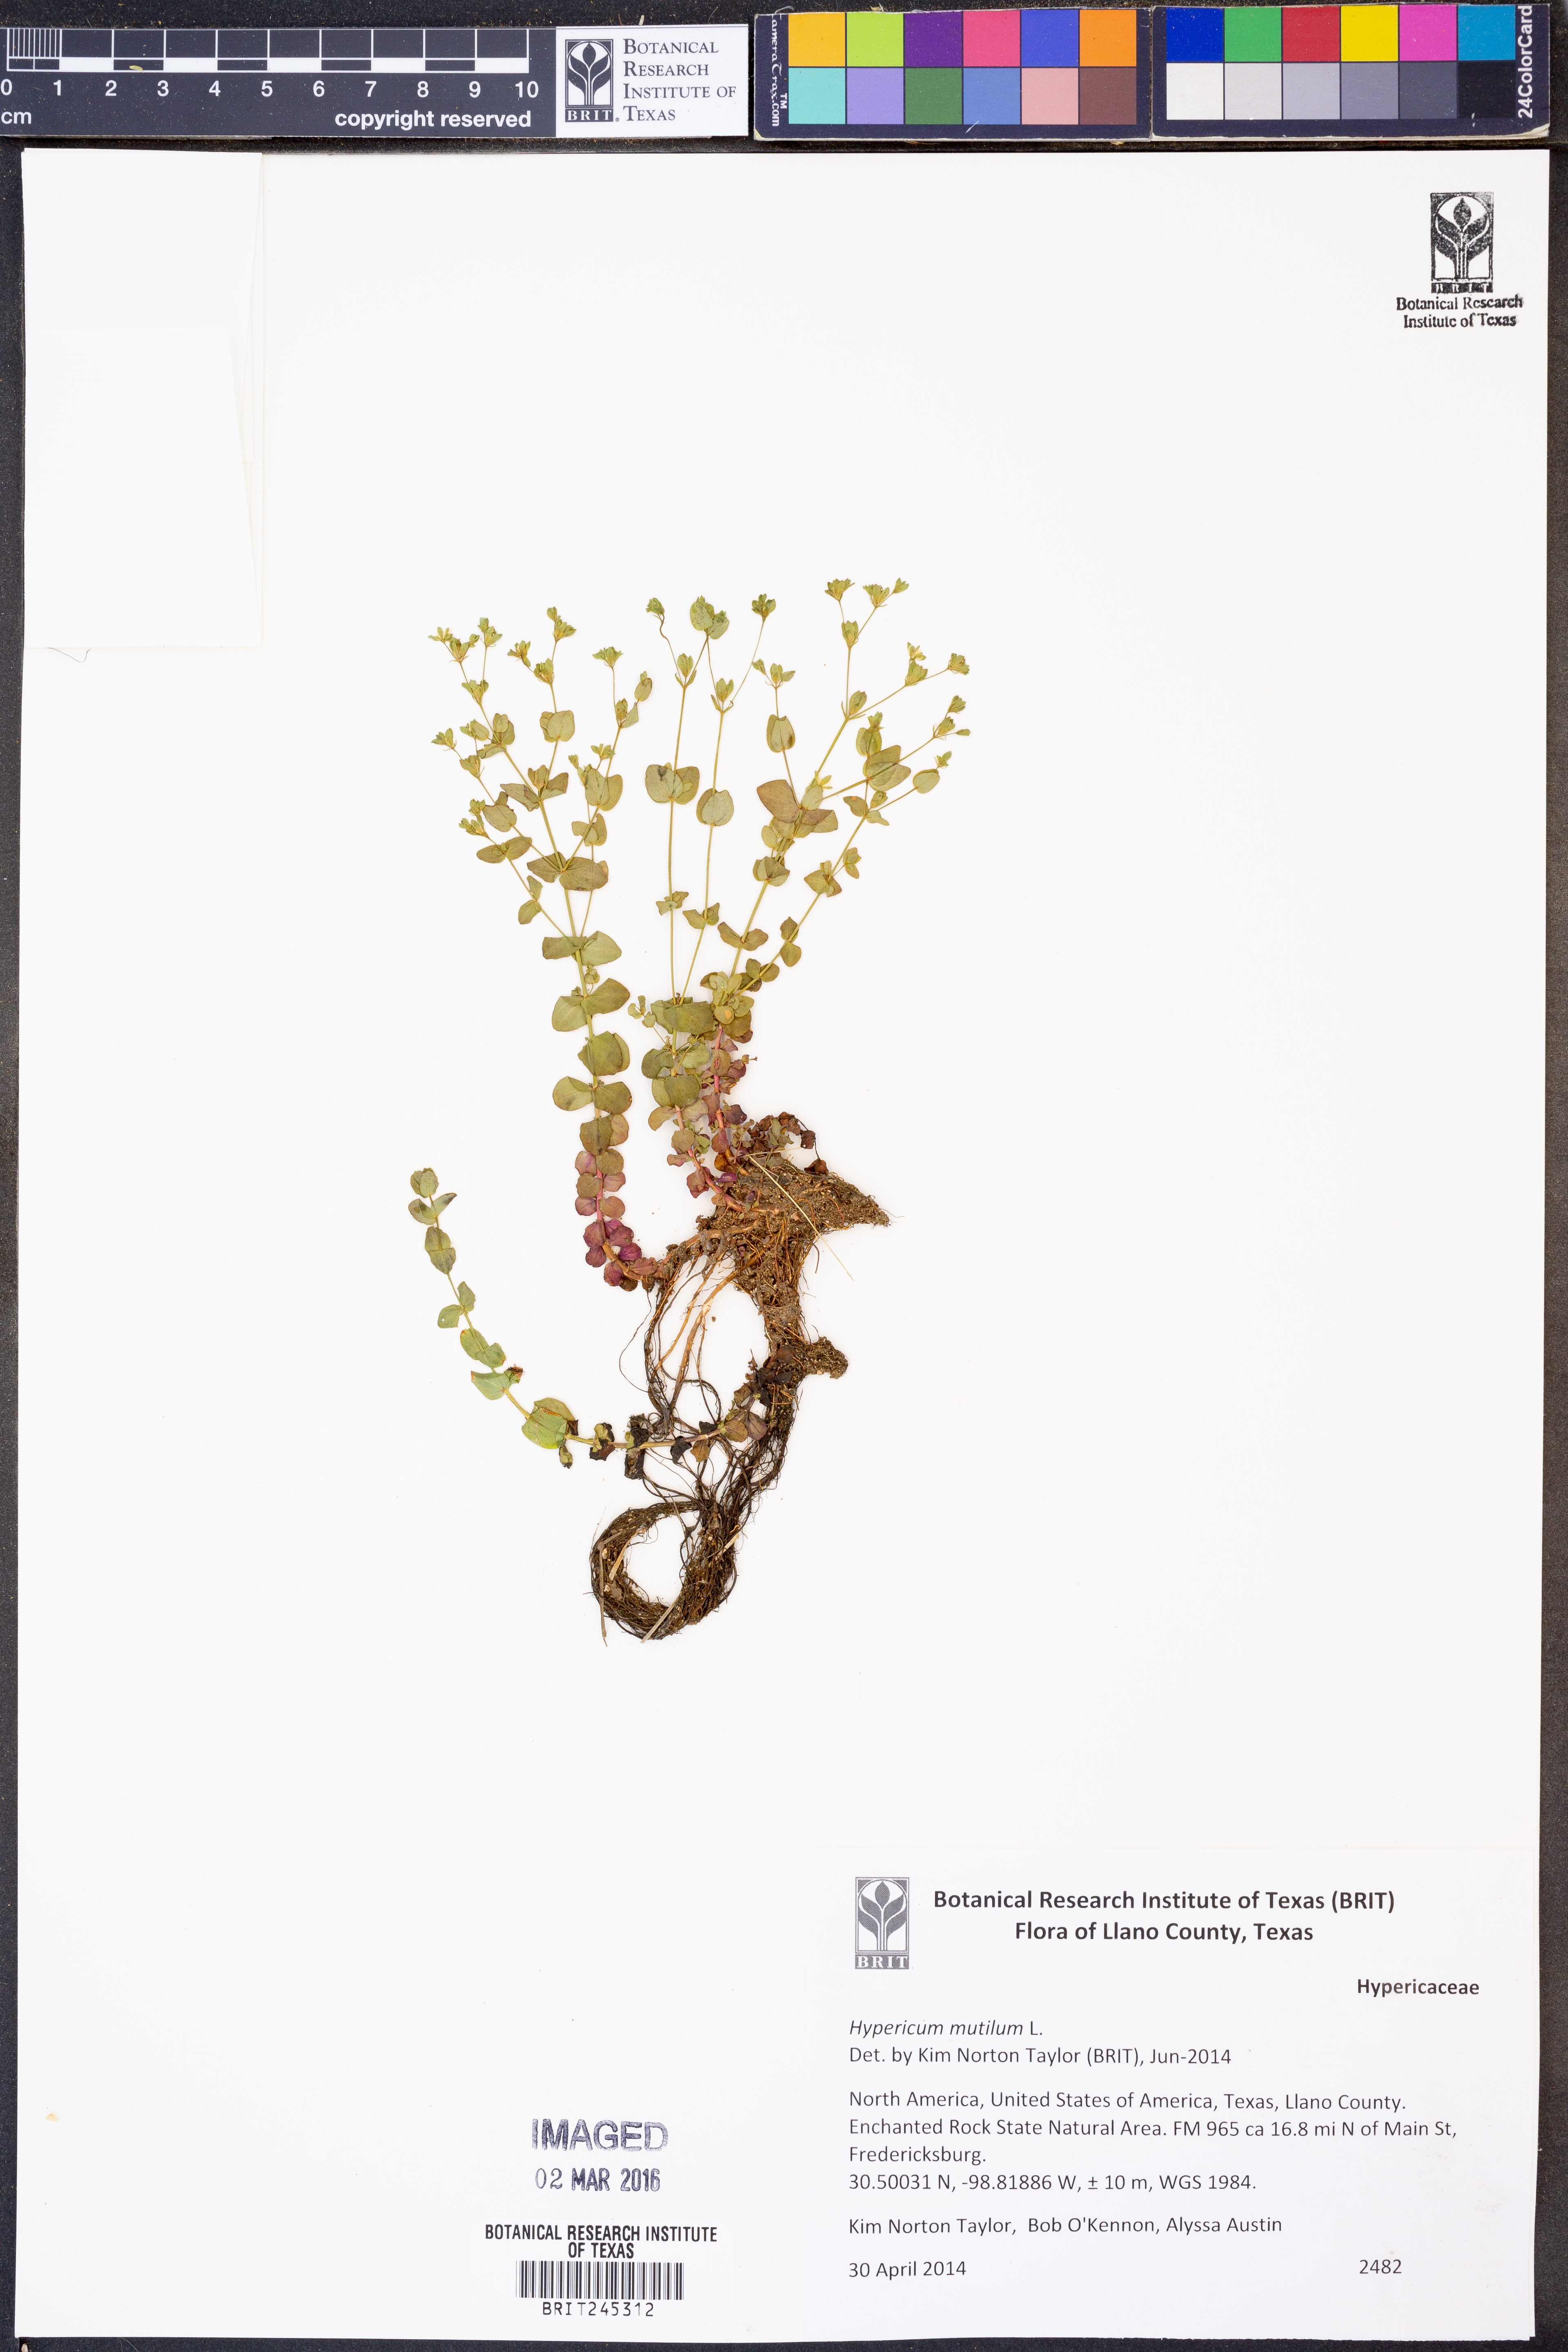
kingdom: Plantae
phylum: Tracheophyta
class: Magnoliopsida
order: Malpighiales
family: Hypericaceae
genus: Hypericum
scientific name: Hypericum mutilum
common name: Dwarf st. john's-wort
